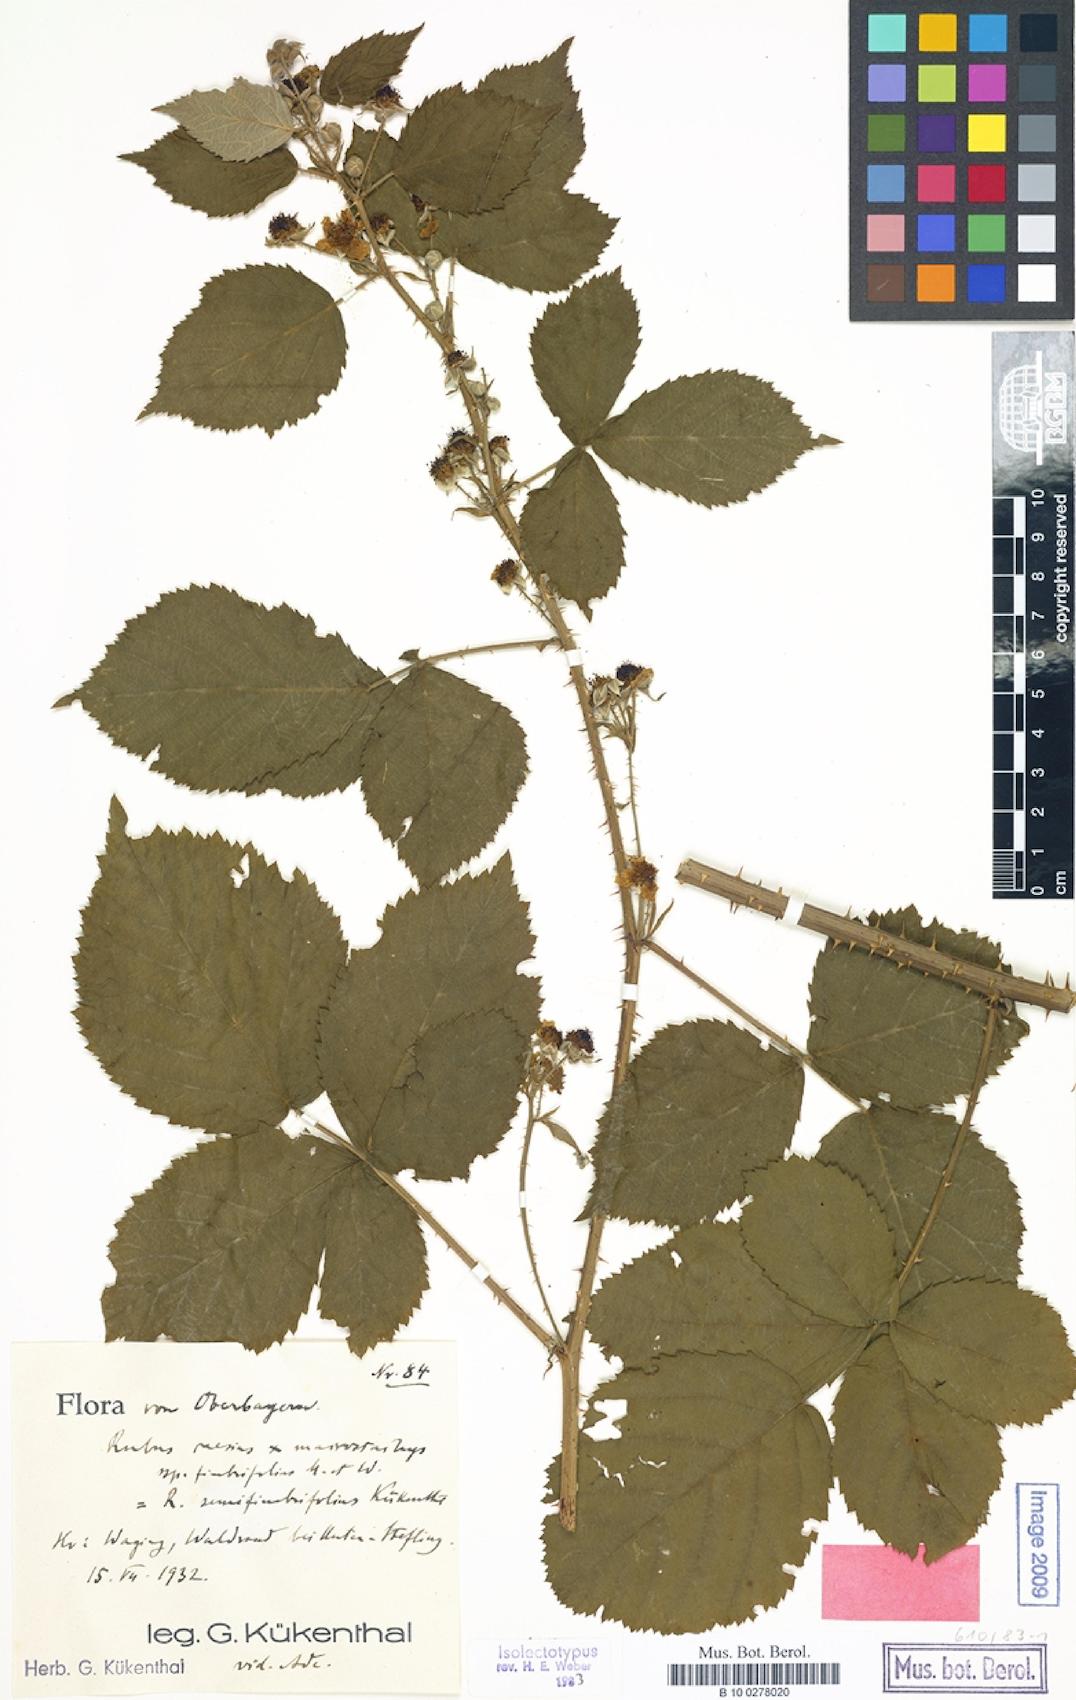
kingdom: Plantae
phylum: Tracheophyta
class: Magnoliopsida
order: Rosales
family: Rosaceae
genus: Rubus
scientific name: Rubus semifimbrifolius
